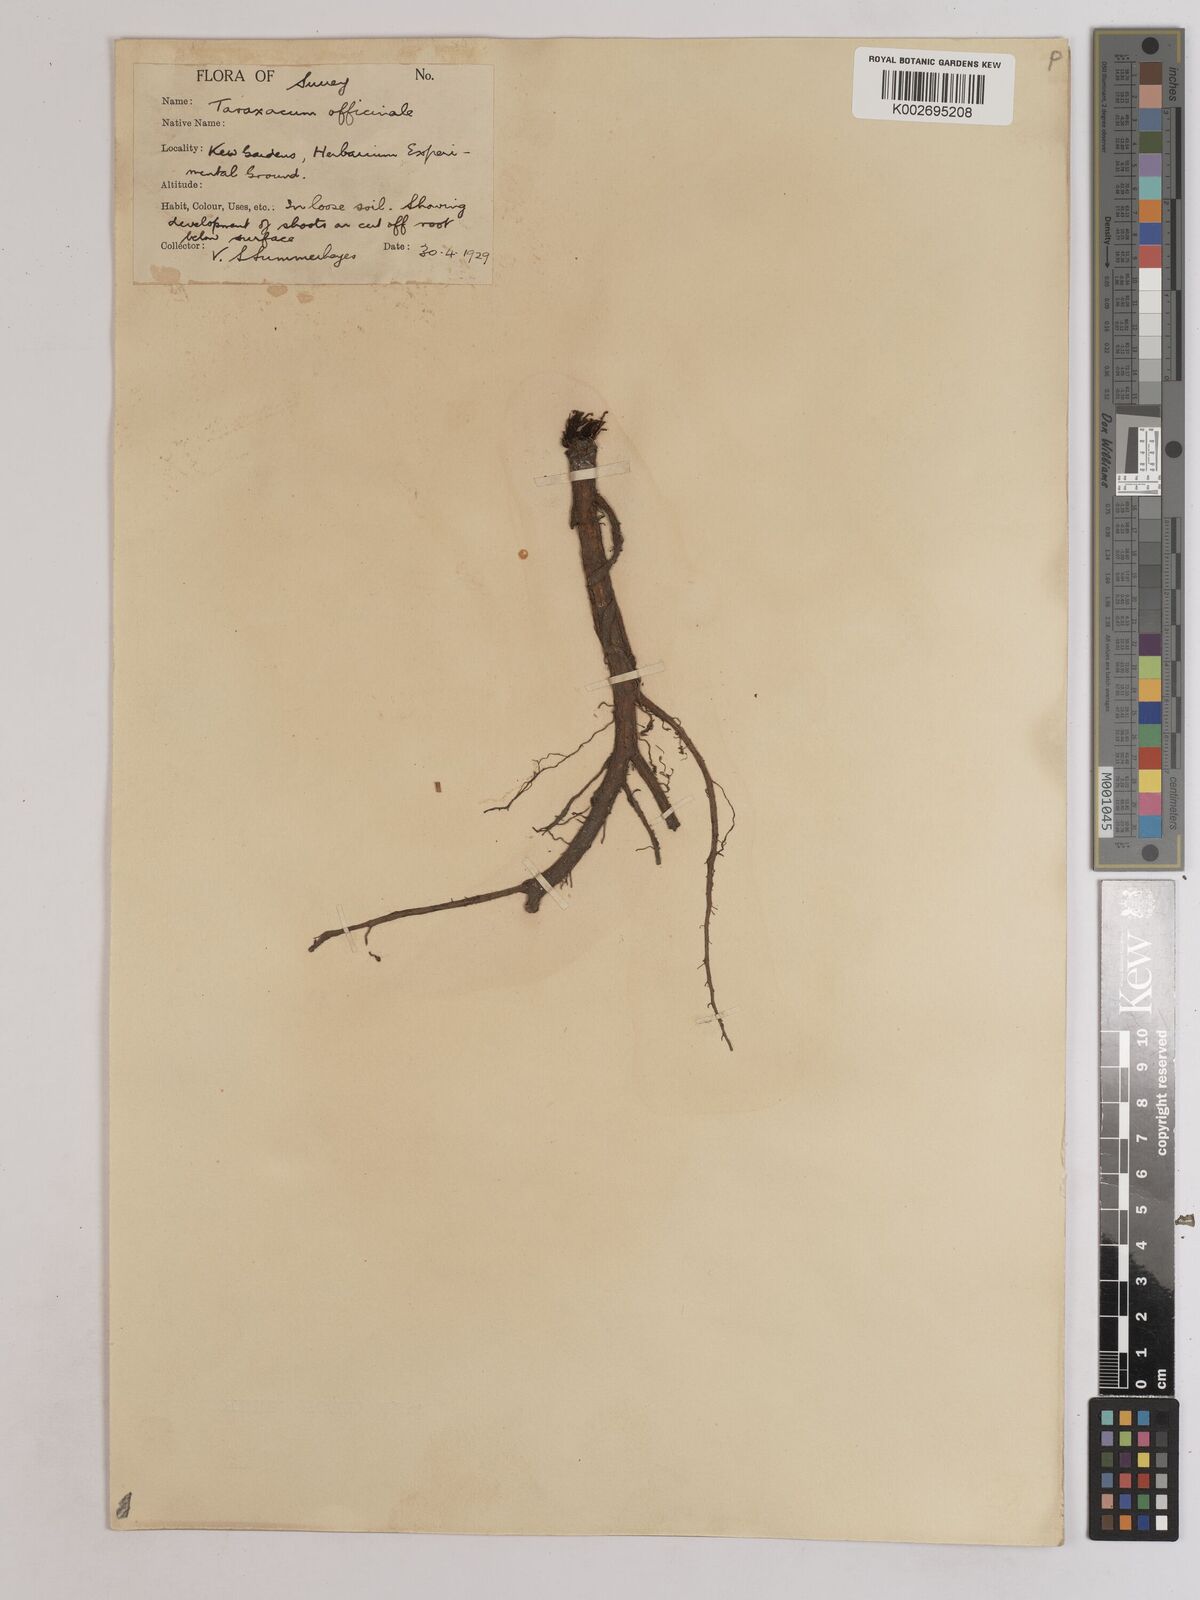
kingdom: Plantae
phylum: Tracheophyta
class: Magnoliopsida
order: Asterales
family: Asteraceae
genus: Taraxacum
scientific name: Taraxacum officinale
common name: Common dandelion
